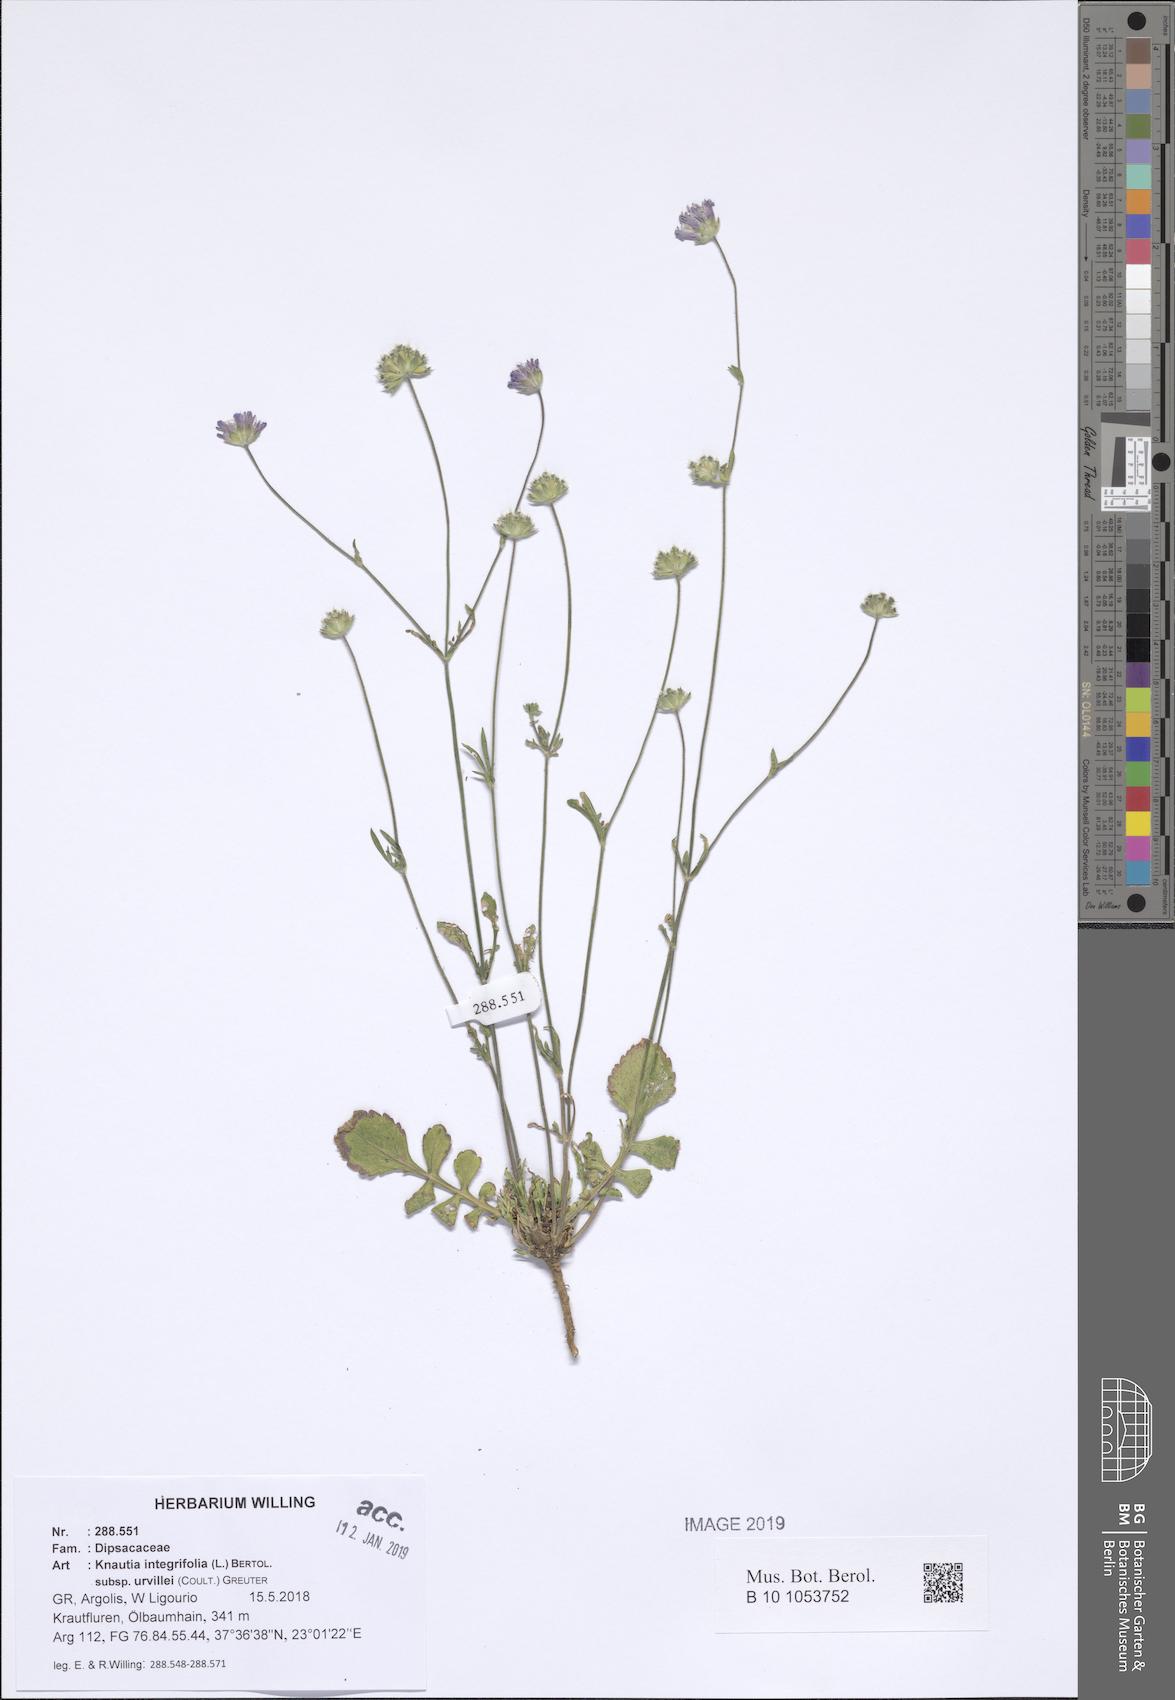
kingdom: Plantae
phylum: Tracheophyta
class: Magnoliopsida
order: Dipsacales
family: Caprifoliaceae
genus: Knautia
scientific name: Knautia integrifolia
